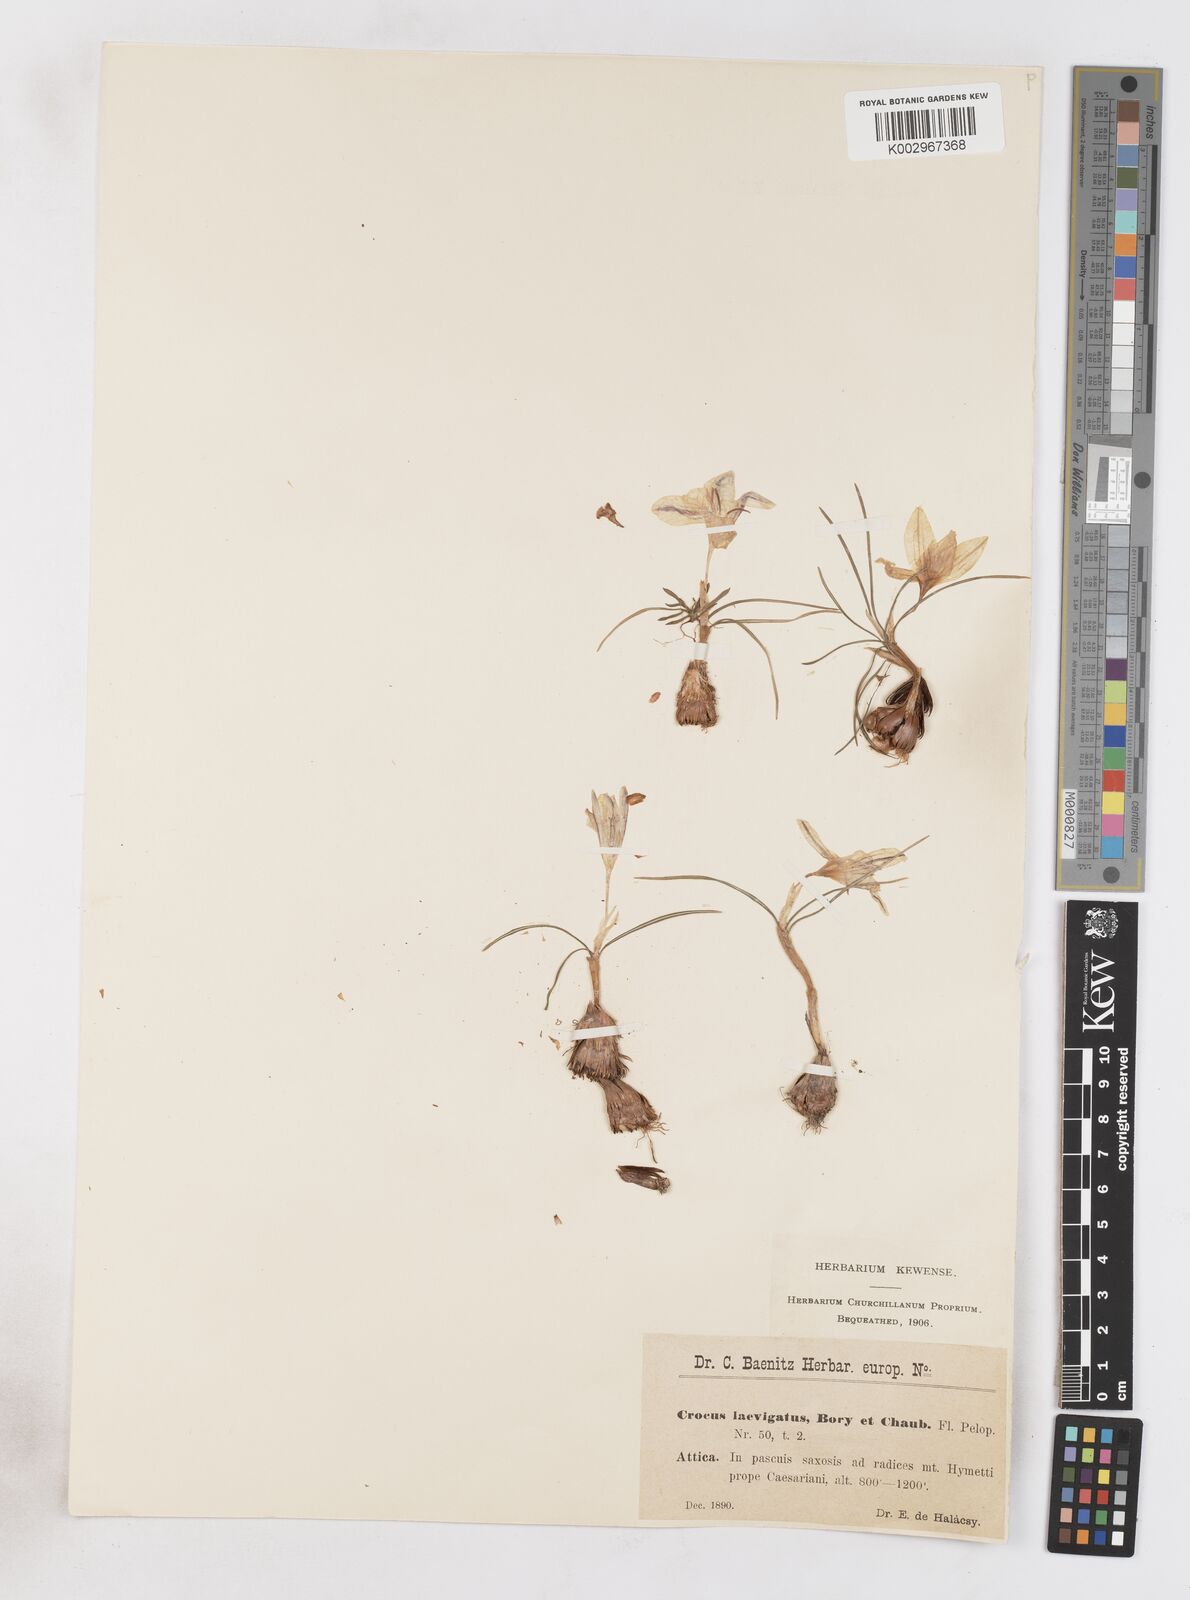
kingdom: Plantae
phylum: Tracheophyta
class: Liliopsida
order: Asparagales
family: Iridaceae
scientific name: Iridaceae
